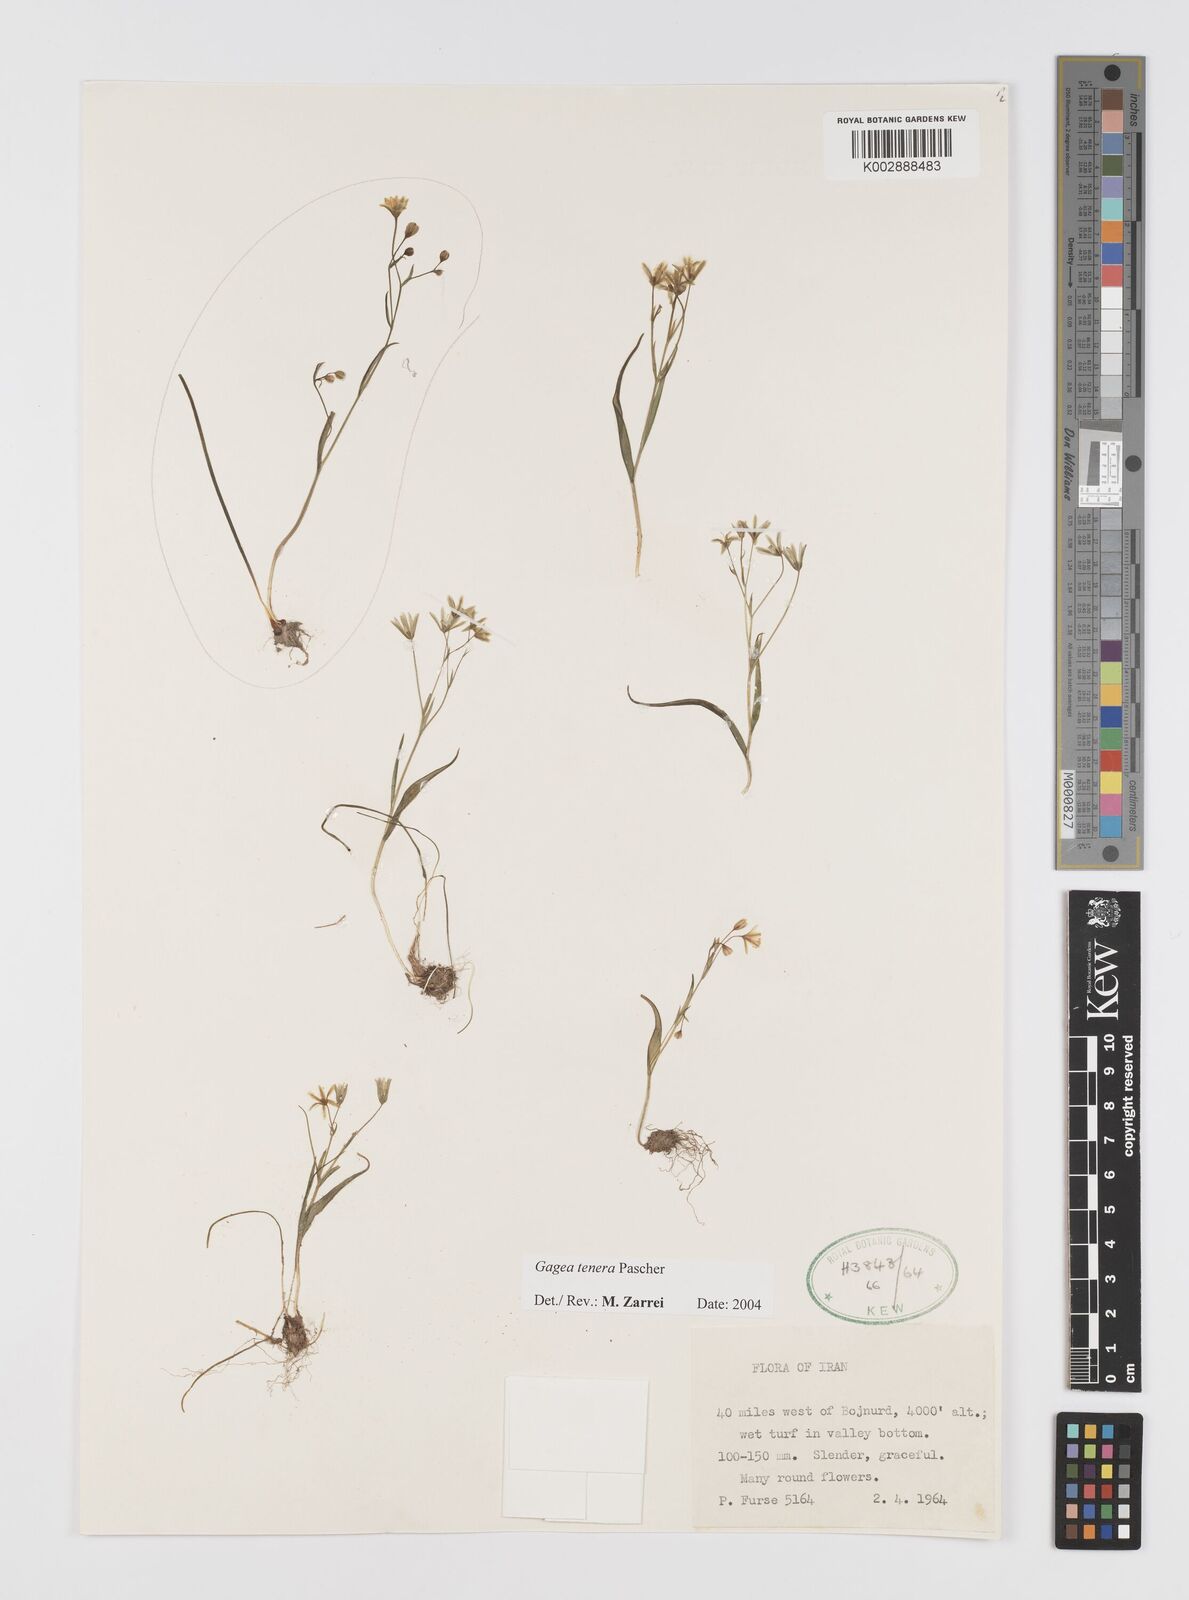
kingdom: Plantae
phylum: Tracheophyta
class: Liliopsida
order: Liliales
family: Liliaceae
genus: Gagea
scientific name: Gagea tenera
